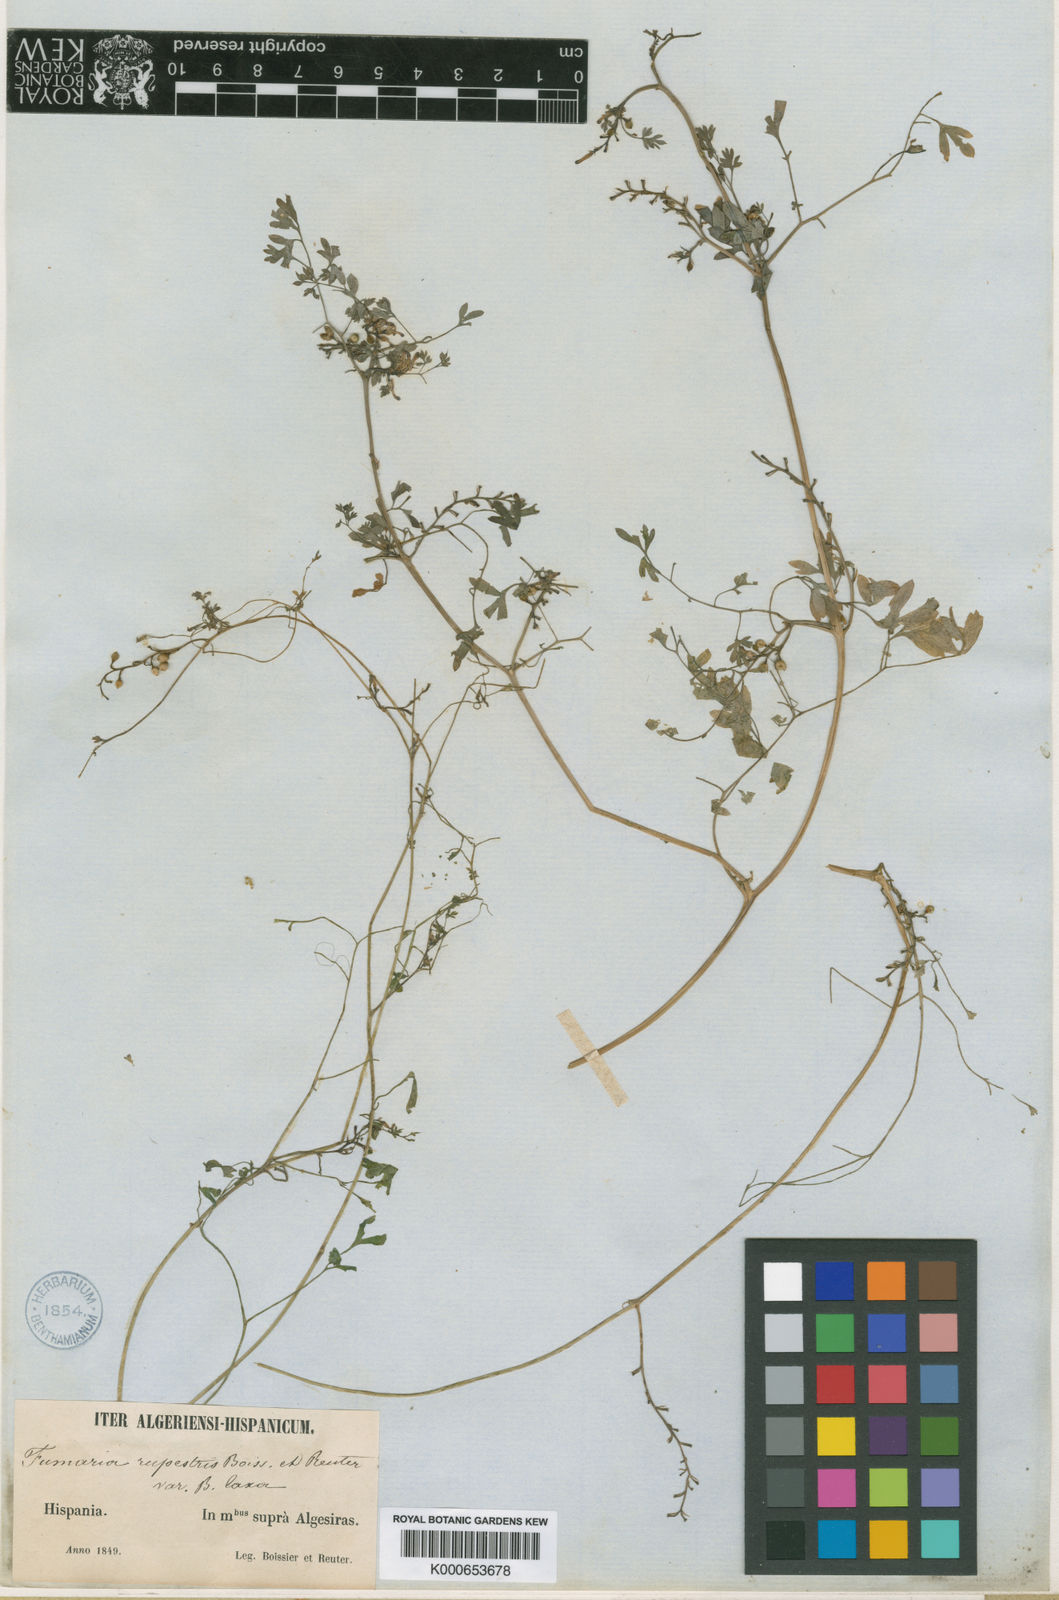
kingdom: Plantae
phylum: Tracheophyta
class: Magnoliopsida
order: Ranunculales
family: Papaveraceae
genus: Fumaria
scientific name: Fumaria rupestris
